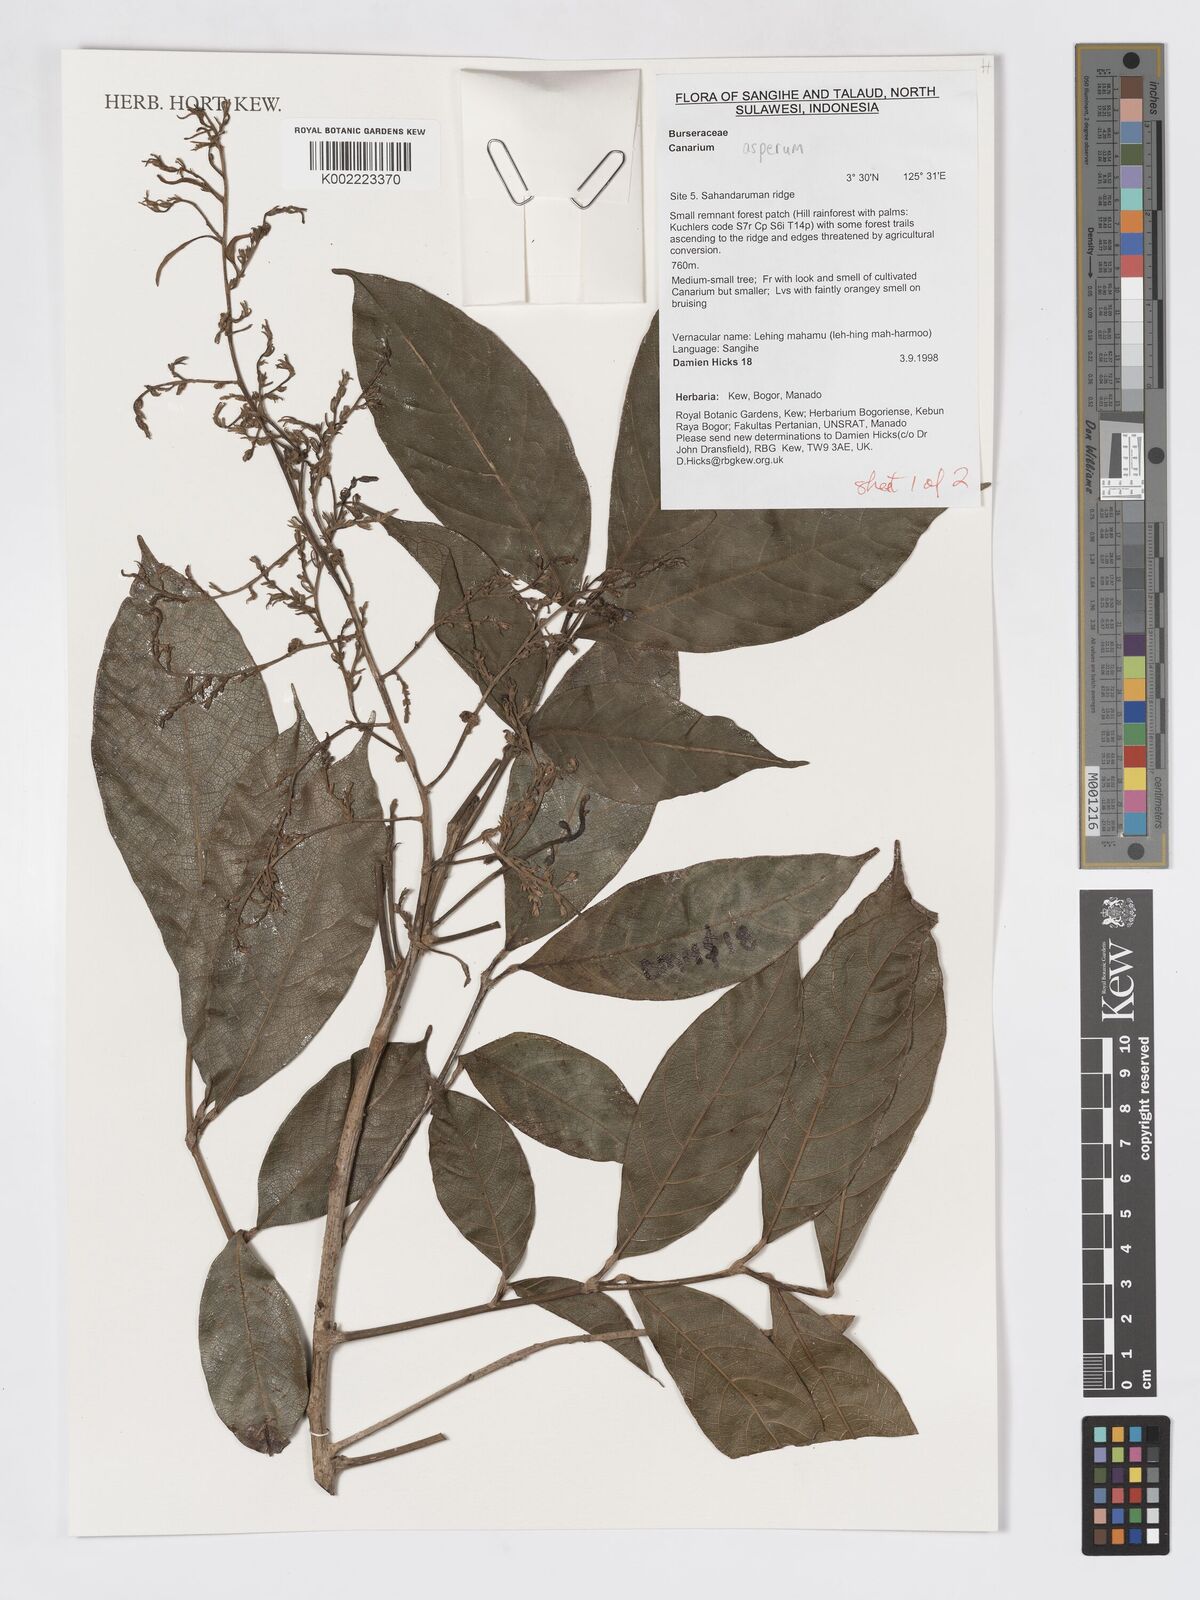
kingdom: Plantae
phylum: Tracheophyta
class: Magnoliopsida
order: Sapindales
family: Burseraceae
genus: Canarium
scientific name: Canarium asperum
